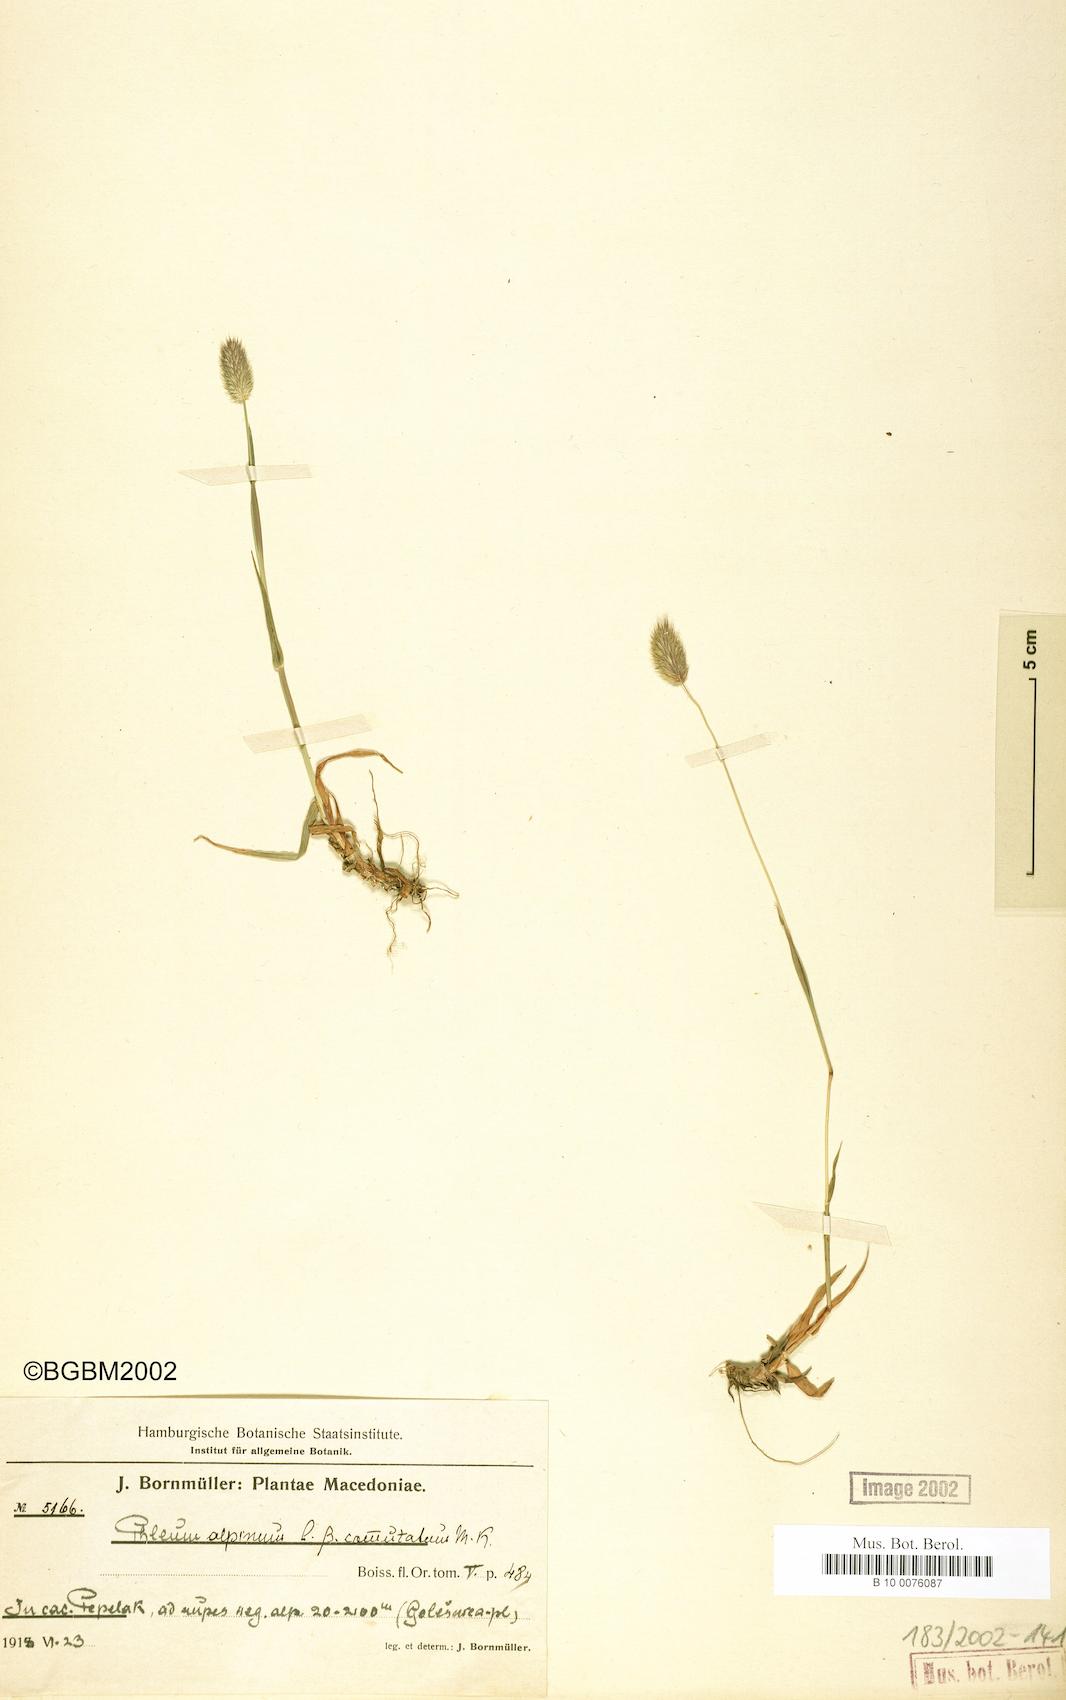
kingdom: Plantae
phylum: Tracheophyta
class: Liliopsida
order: Poales
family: Poaceae
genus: Phleum
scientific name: Phleum alpinum
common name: Alpine cat's-tail
